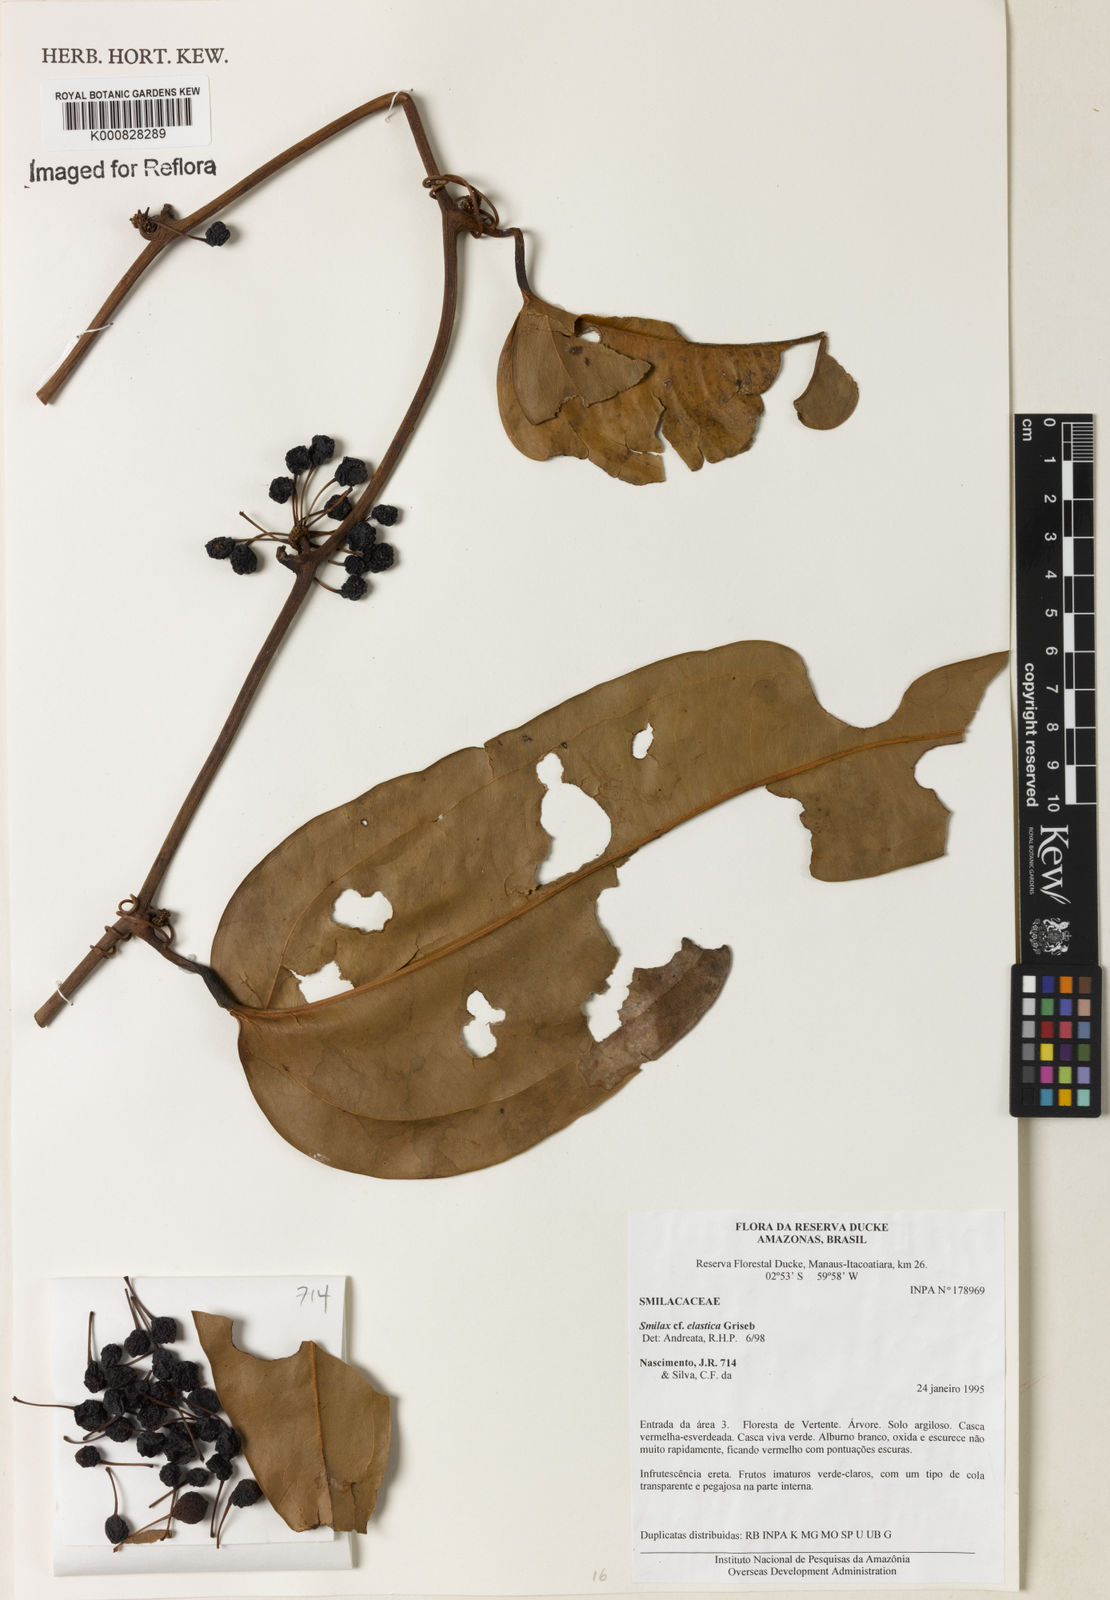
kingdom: Plantae
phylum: Tracheophyta
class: Liliopsida
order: Liliales
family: Smilacaceae
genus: Smilax
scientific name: Smilax elastica
